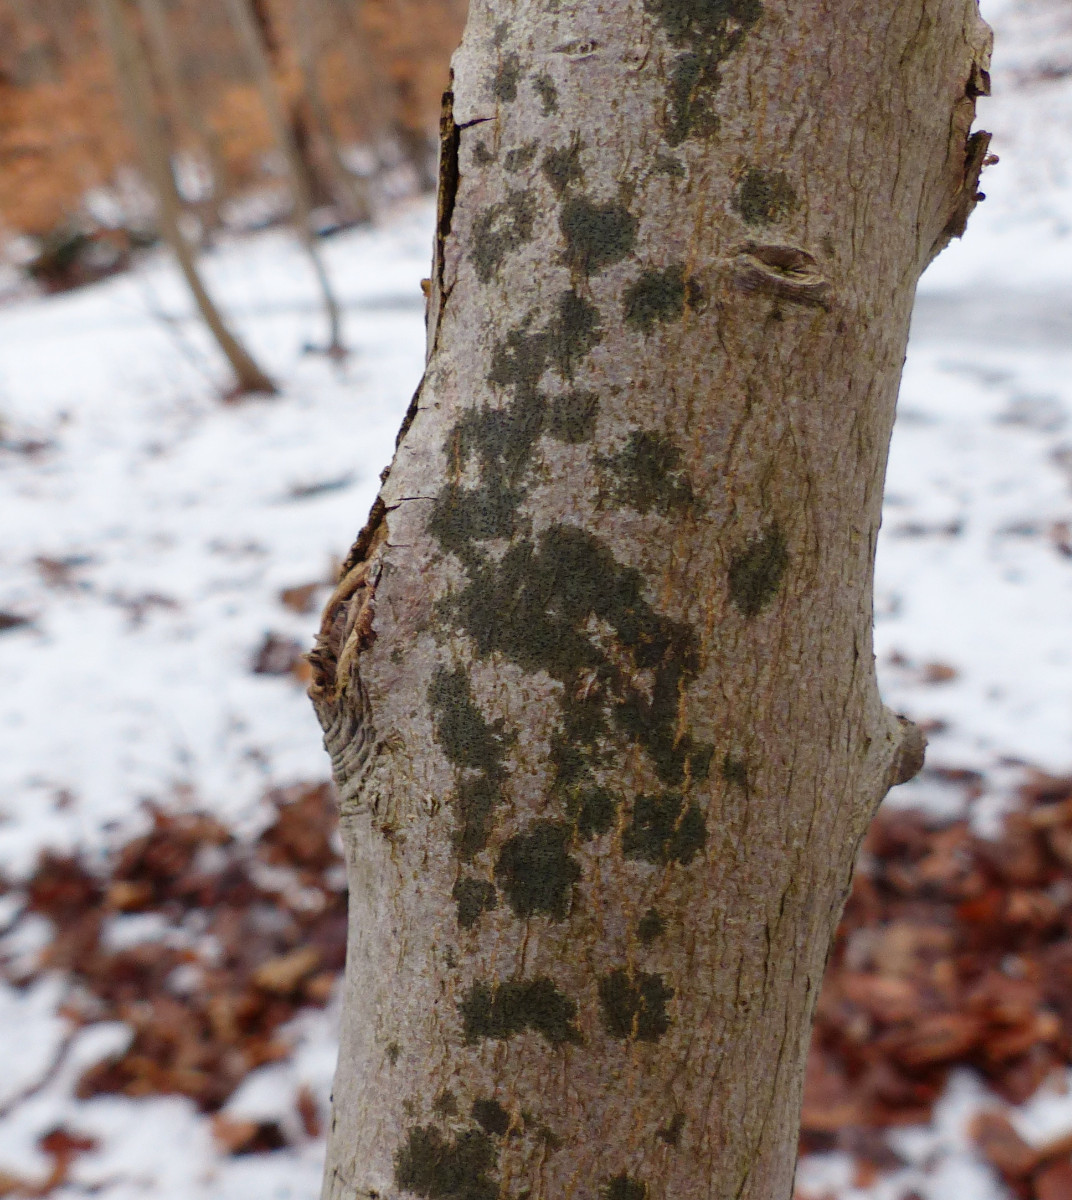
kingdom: Fungi
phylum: Ascomycota
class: Lecanoromycetes
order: Ostropales
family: Porinaceae
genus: Pseudosagedia
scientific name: Pseudosagedia aenea
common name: grønlig porina
